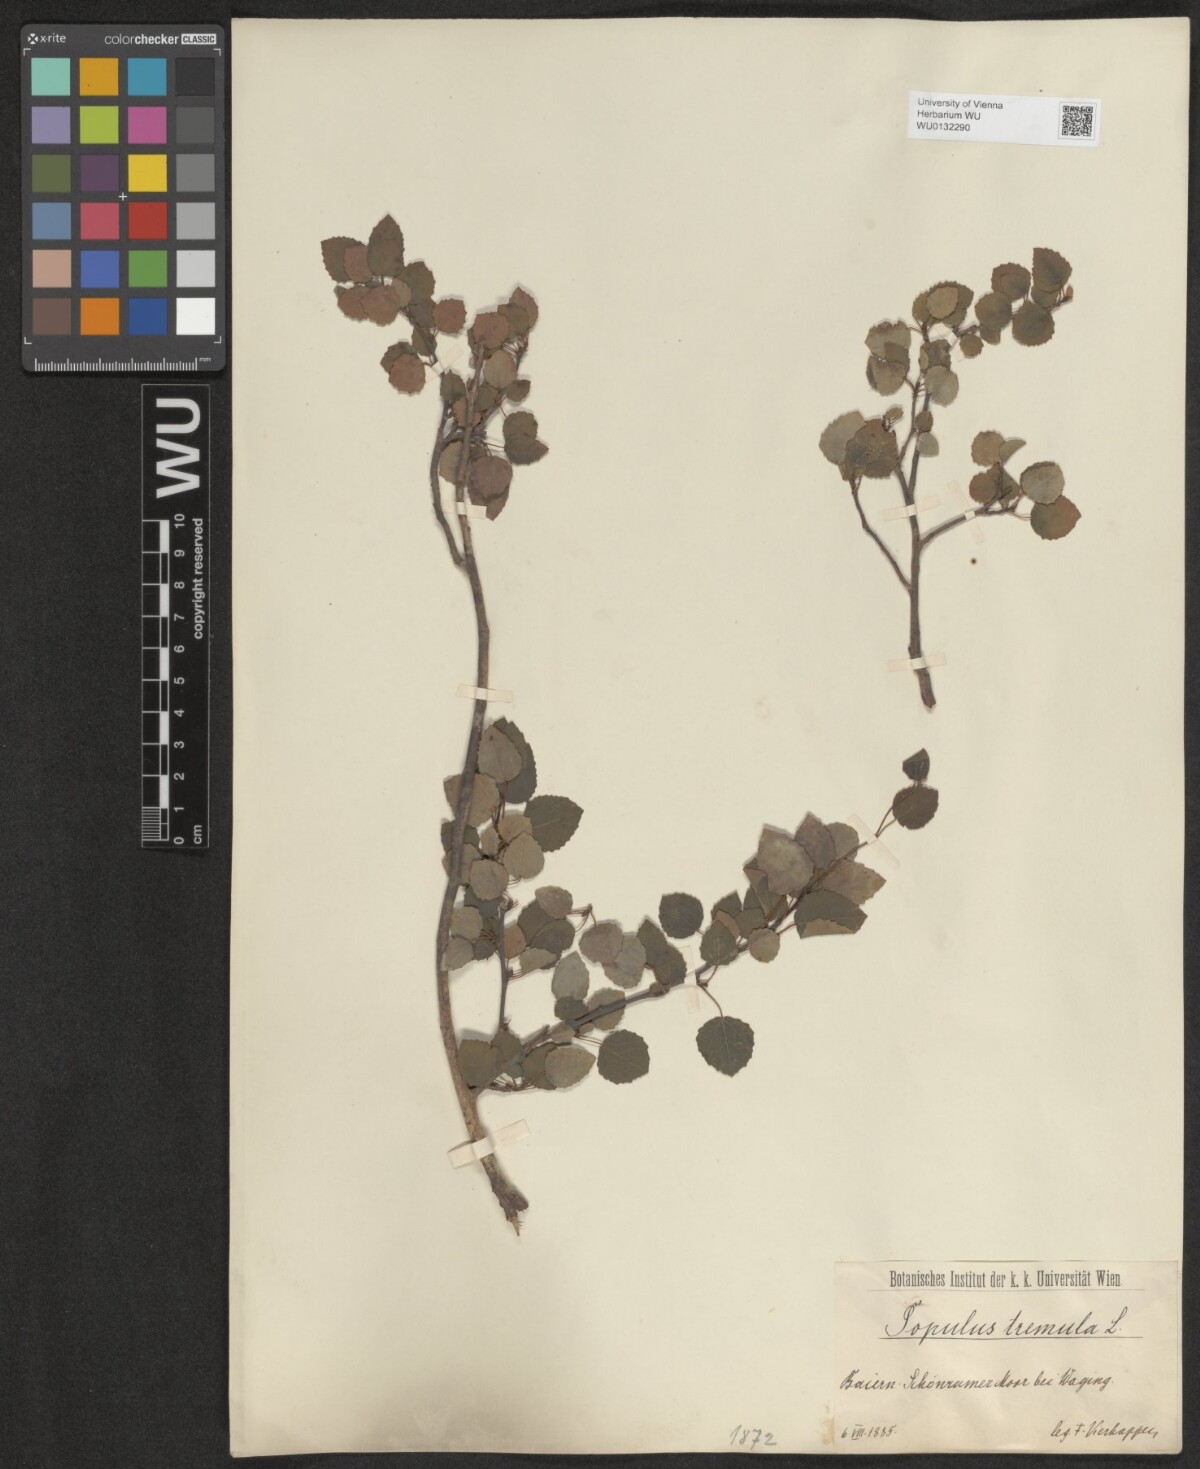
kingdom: Plantae
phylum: Tracheophyta
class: Magnoliopsida
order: Malpighiales
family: Salicaceae
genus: Populus
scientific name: Populus tremula
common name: European aspen
